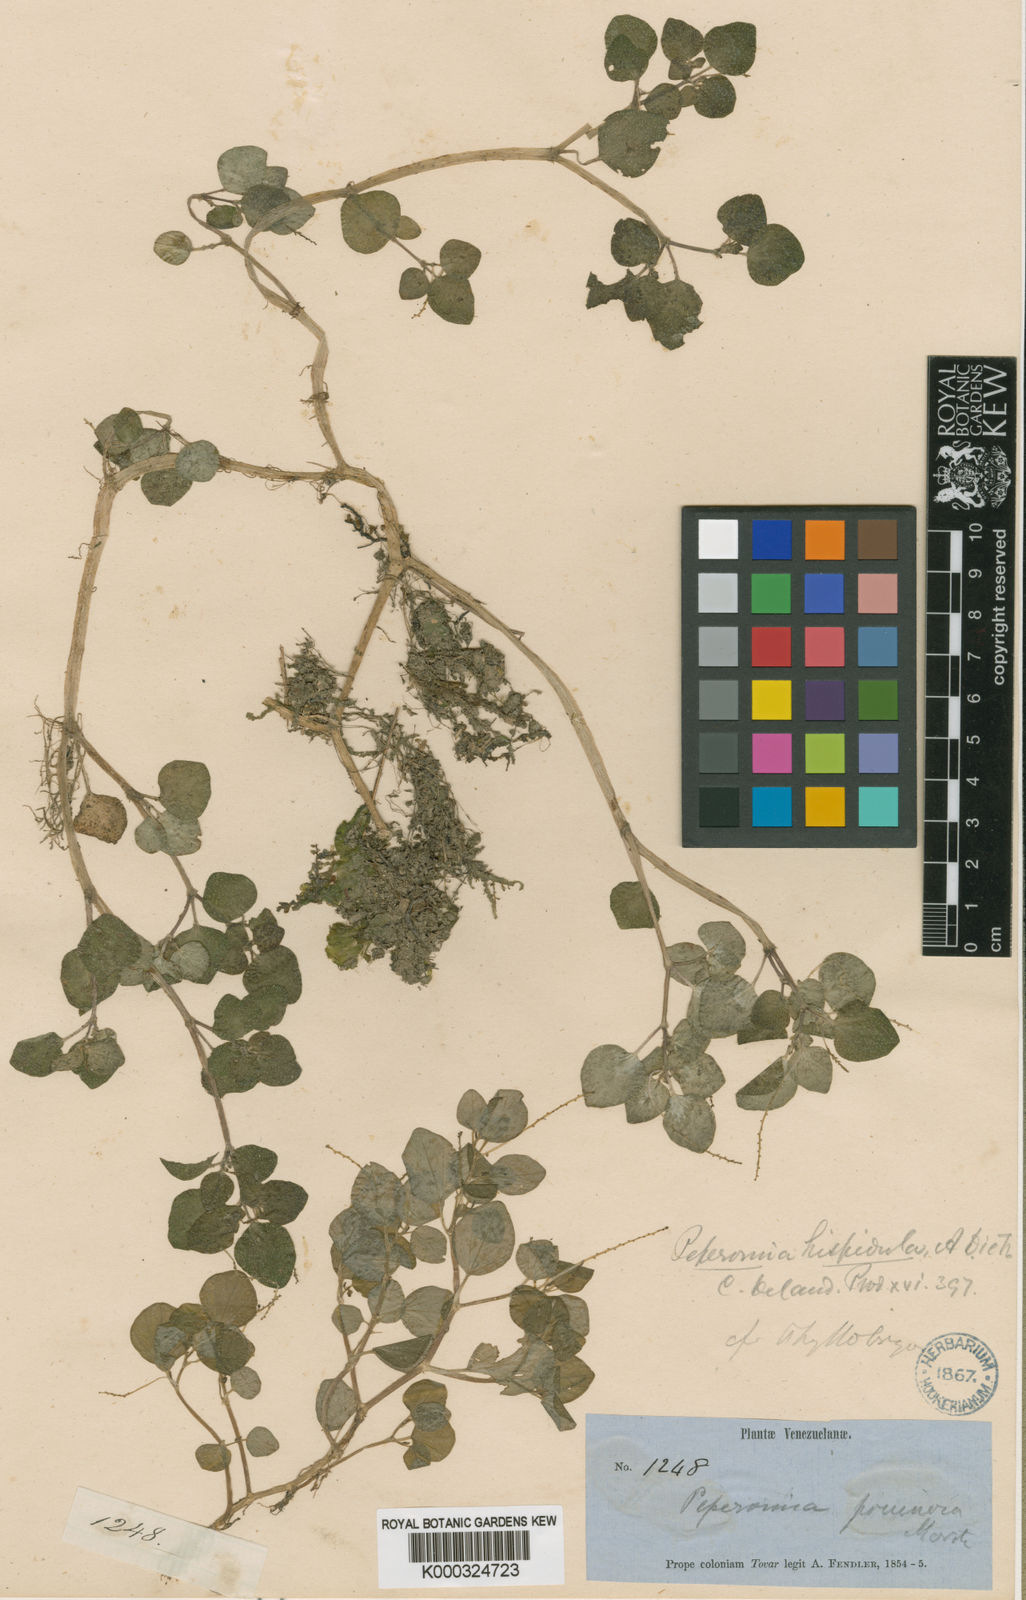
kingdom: Plantae
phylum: Tracheophyta
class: Magnoliopsida
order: Piperales
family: Piperaceae
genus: Peperomia
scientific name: Peperomia hispidula
